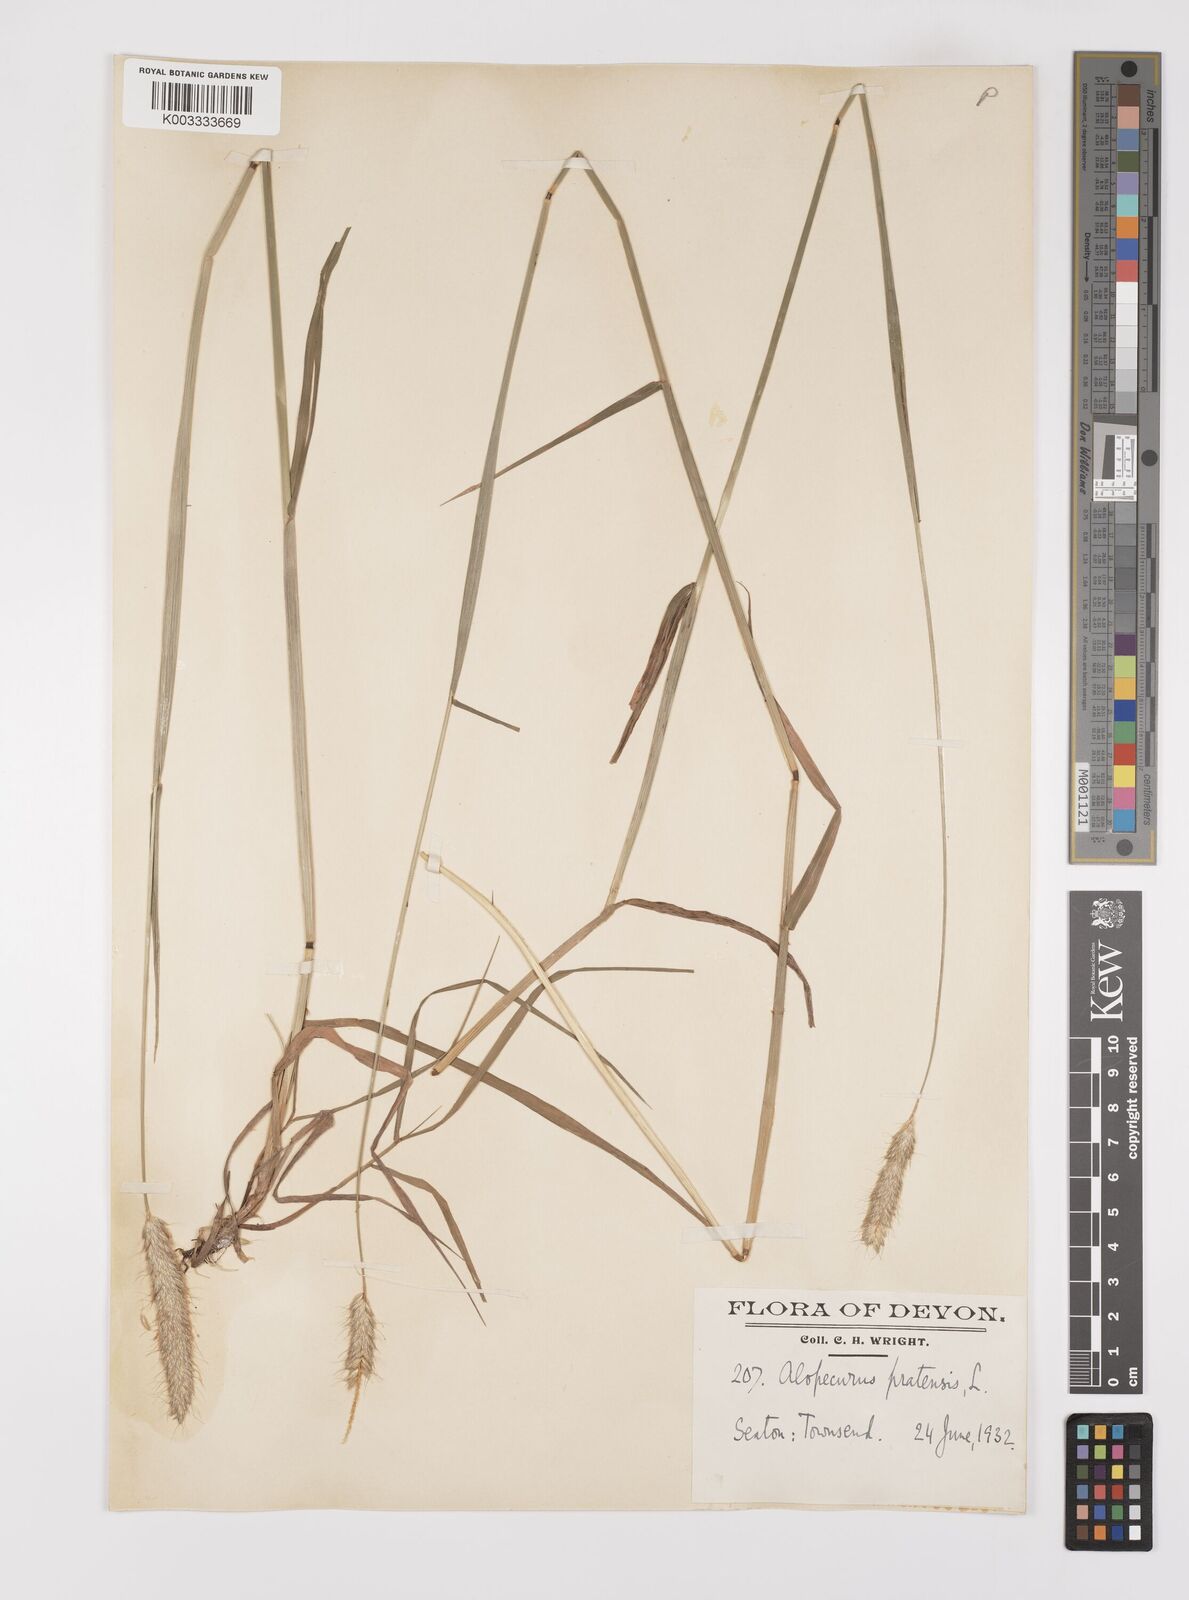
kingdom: Plantae
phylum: Tracheophyta
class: Liliopsida
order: Poales
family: Poaceae
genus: Alopecurus
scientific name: Alopecurus pratensis
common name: Meadow foxtail
